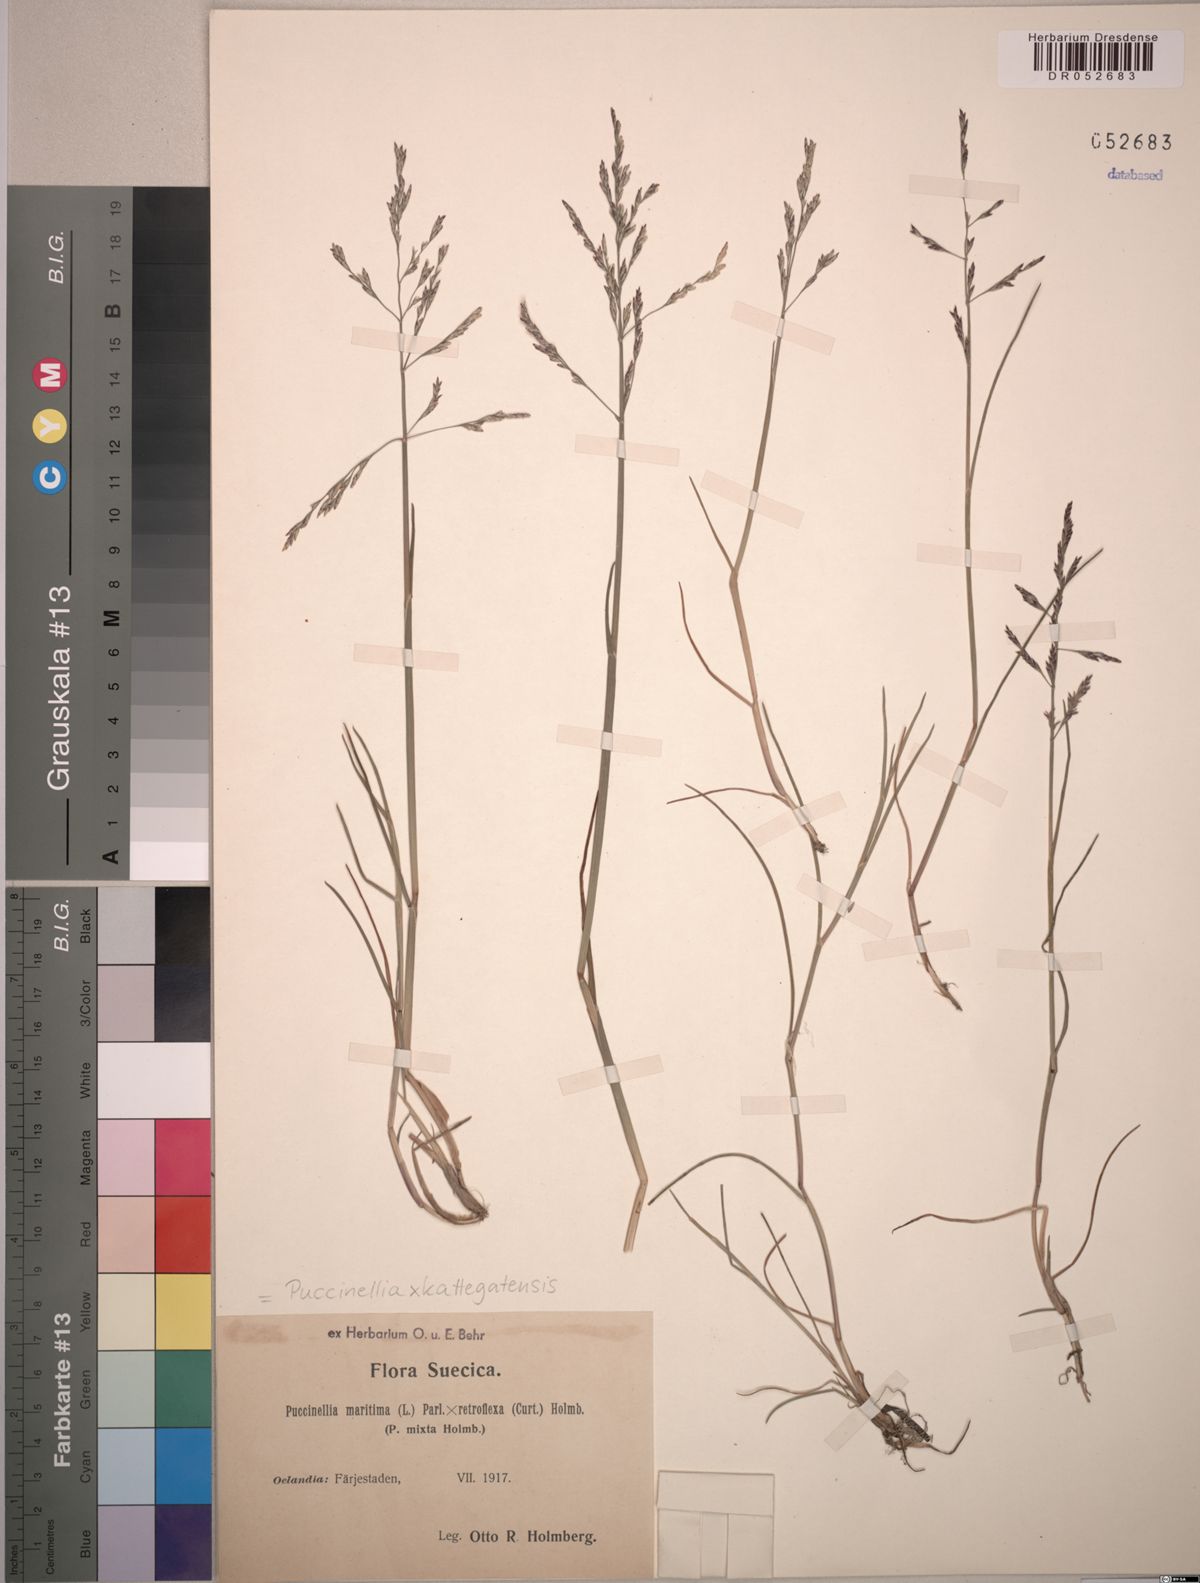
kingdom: Plantae
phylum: Tracheophyta
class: Liliopsida
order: Poales
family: Poaceae
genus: Puccinellia
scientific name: Puccinellia kattegatensis
